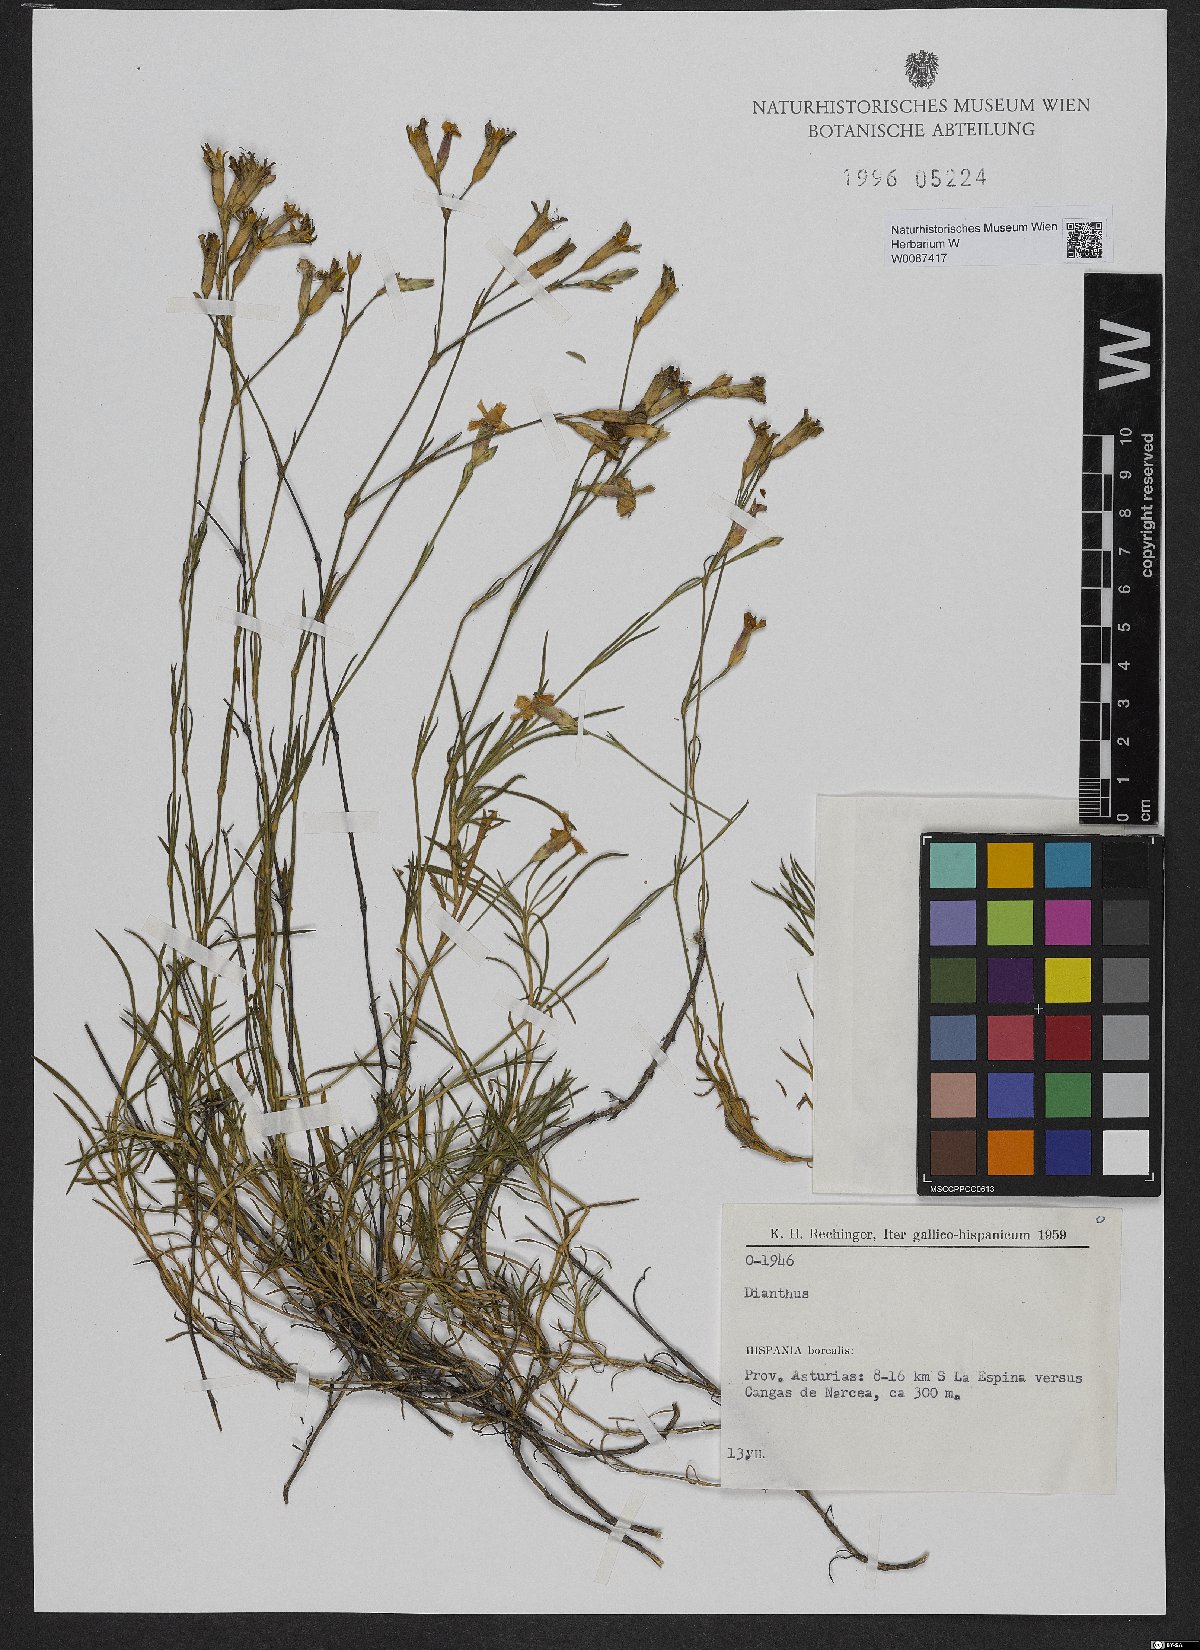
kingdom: Plantae
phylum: Tracheophyta
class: Magnoliopsida
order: Caryophyllales
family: Caryophyllaceae
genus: Dianthus
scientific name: Dianthus
